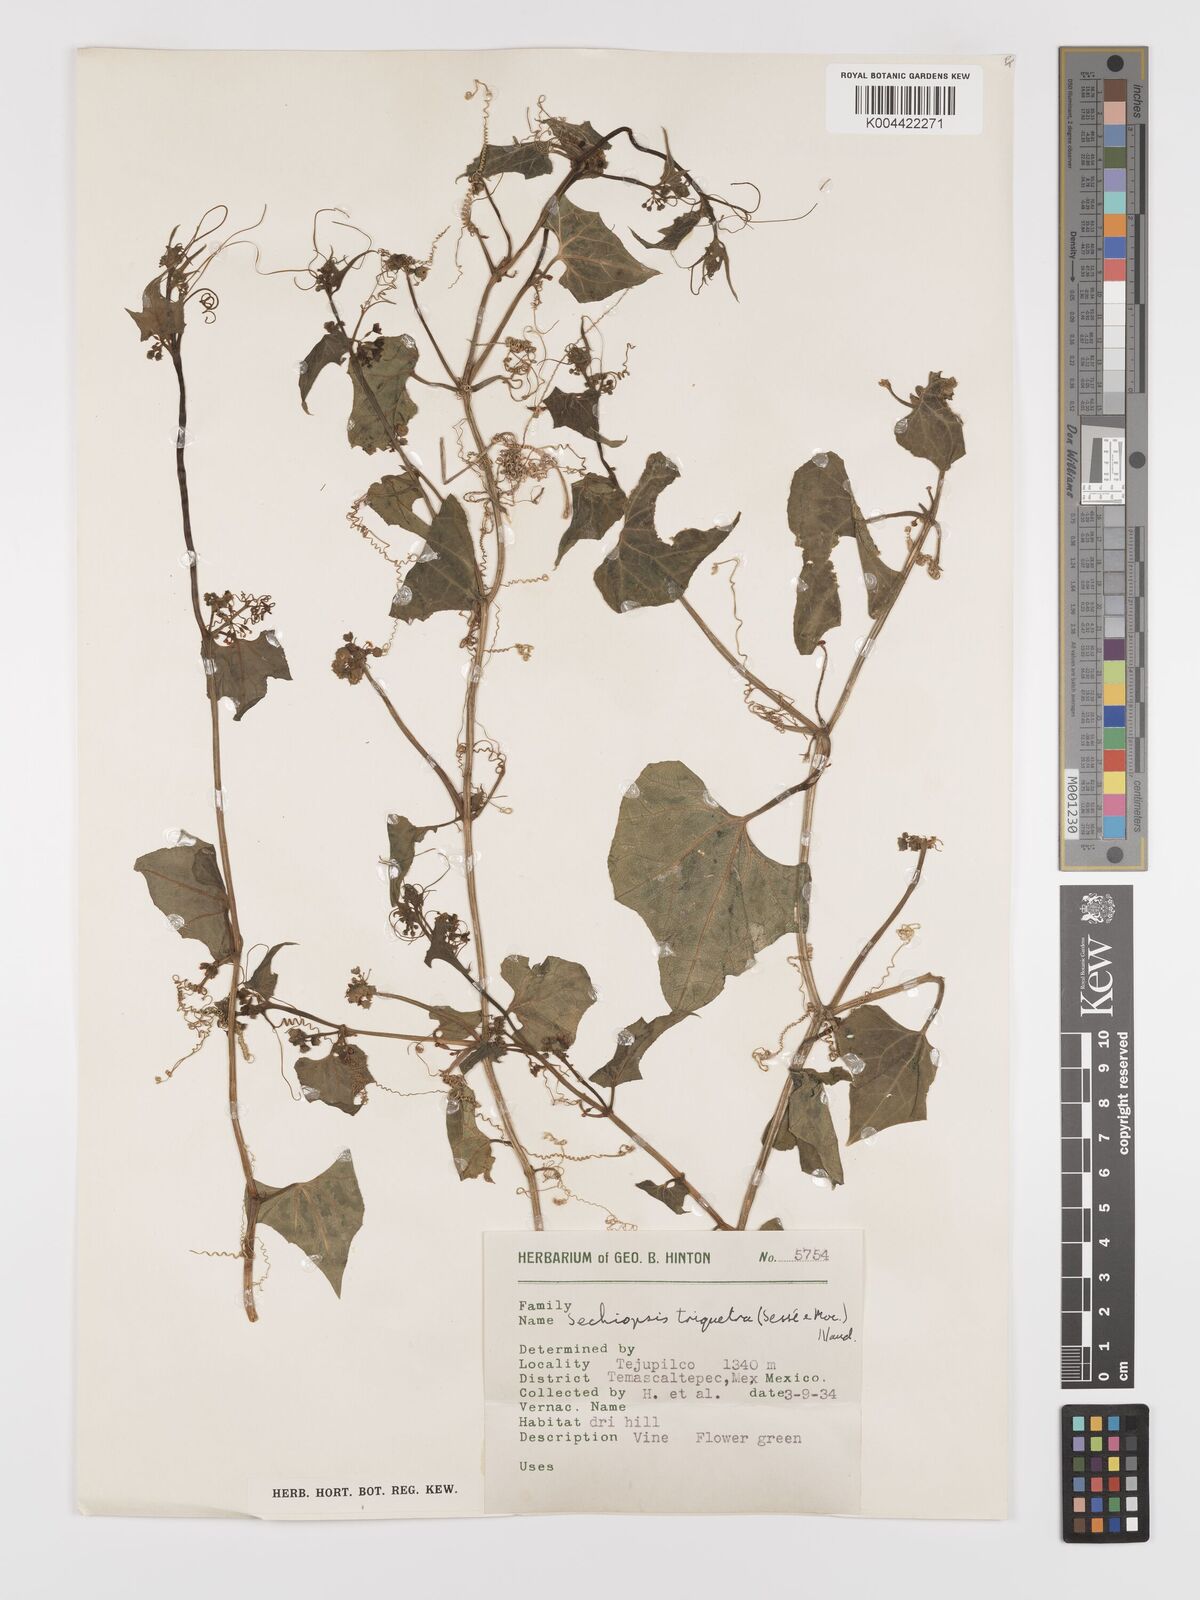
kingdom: Plantae
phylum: Tracheophyta
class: Magnoliopsida
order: Cucurbitales
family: Cucurbitaceae
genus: Sechiopsis
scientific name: Sechiopsis triqueter
